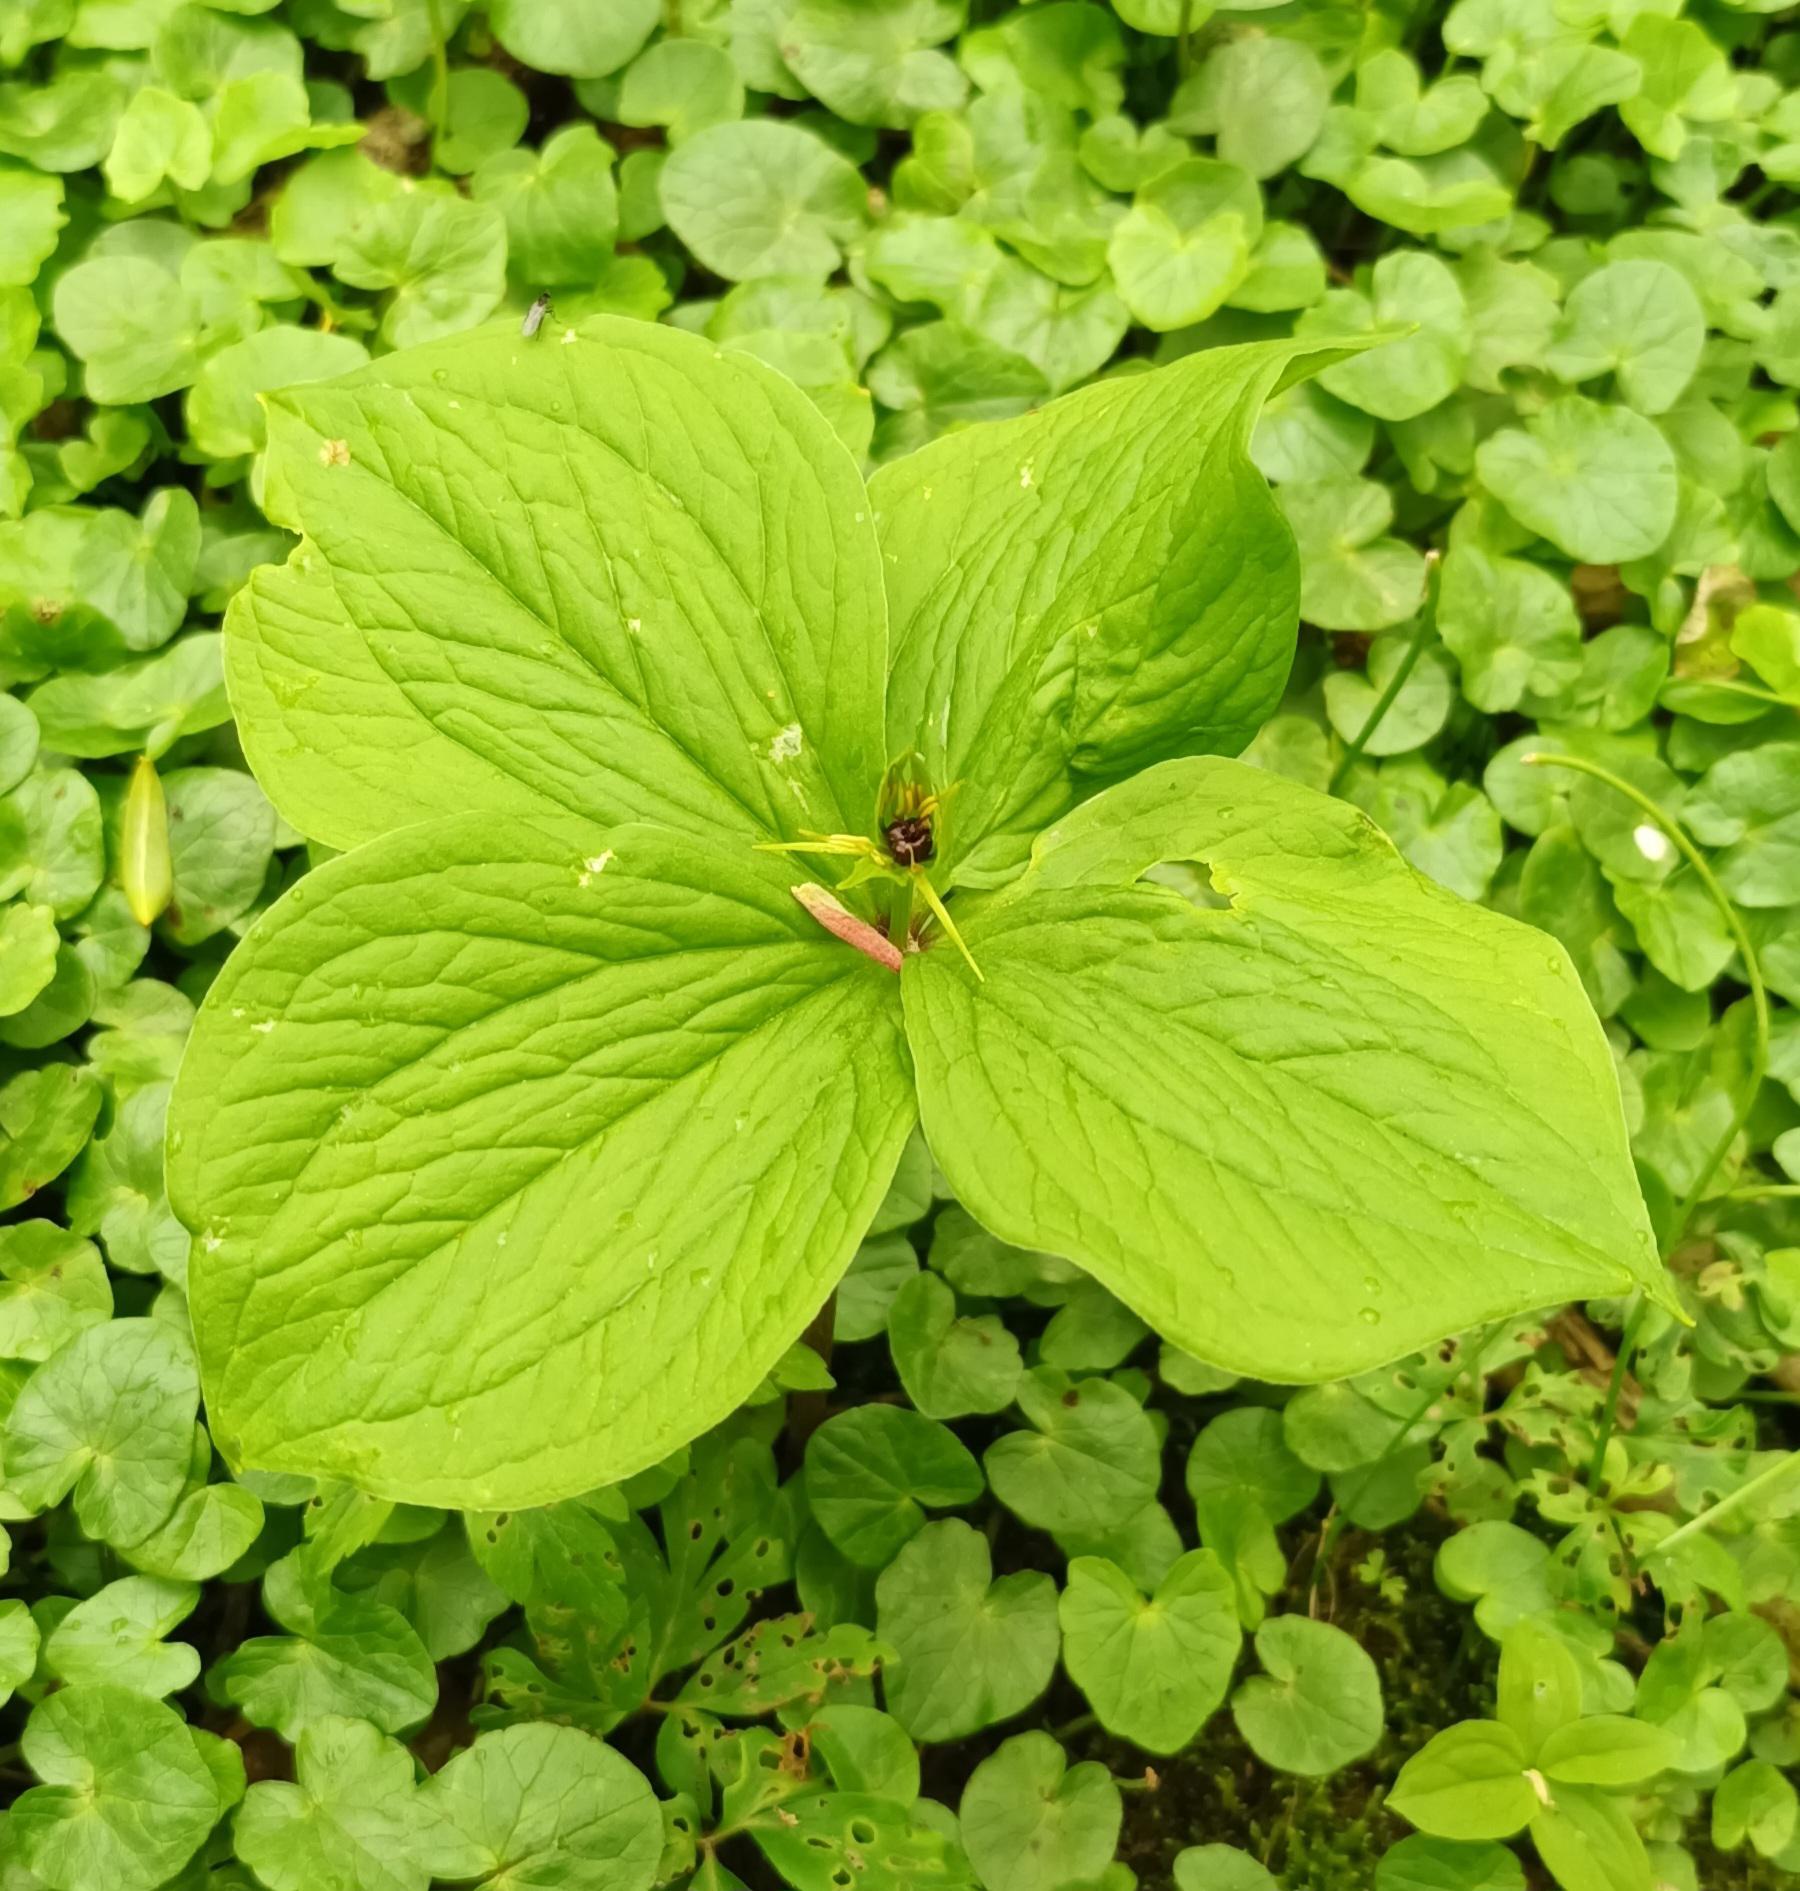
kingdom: Plantae
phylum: Tracheophyta
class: Liliopsida
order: Liliales
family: Melanthiaceae
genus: Paris
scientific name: Paris quadrifolia
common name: Firblad
